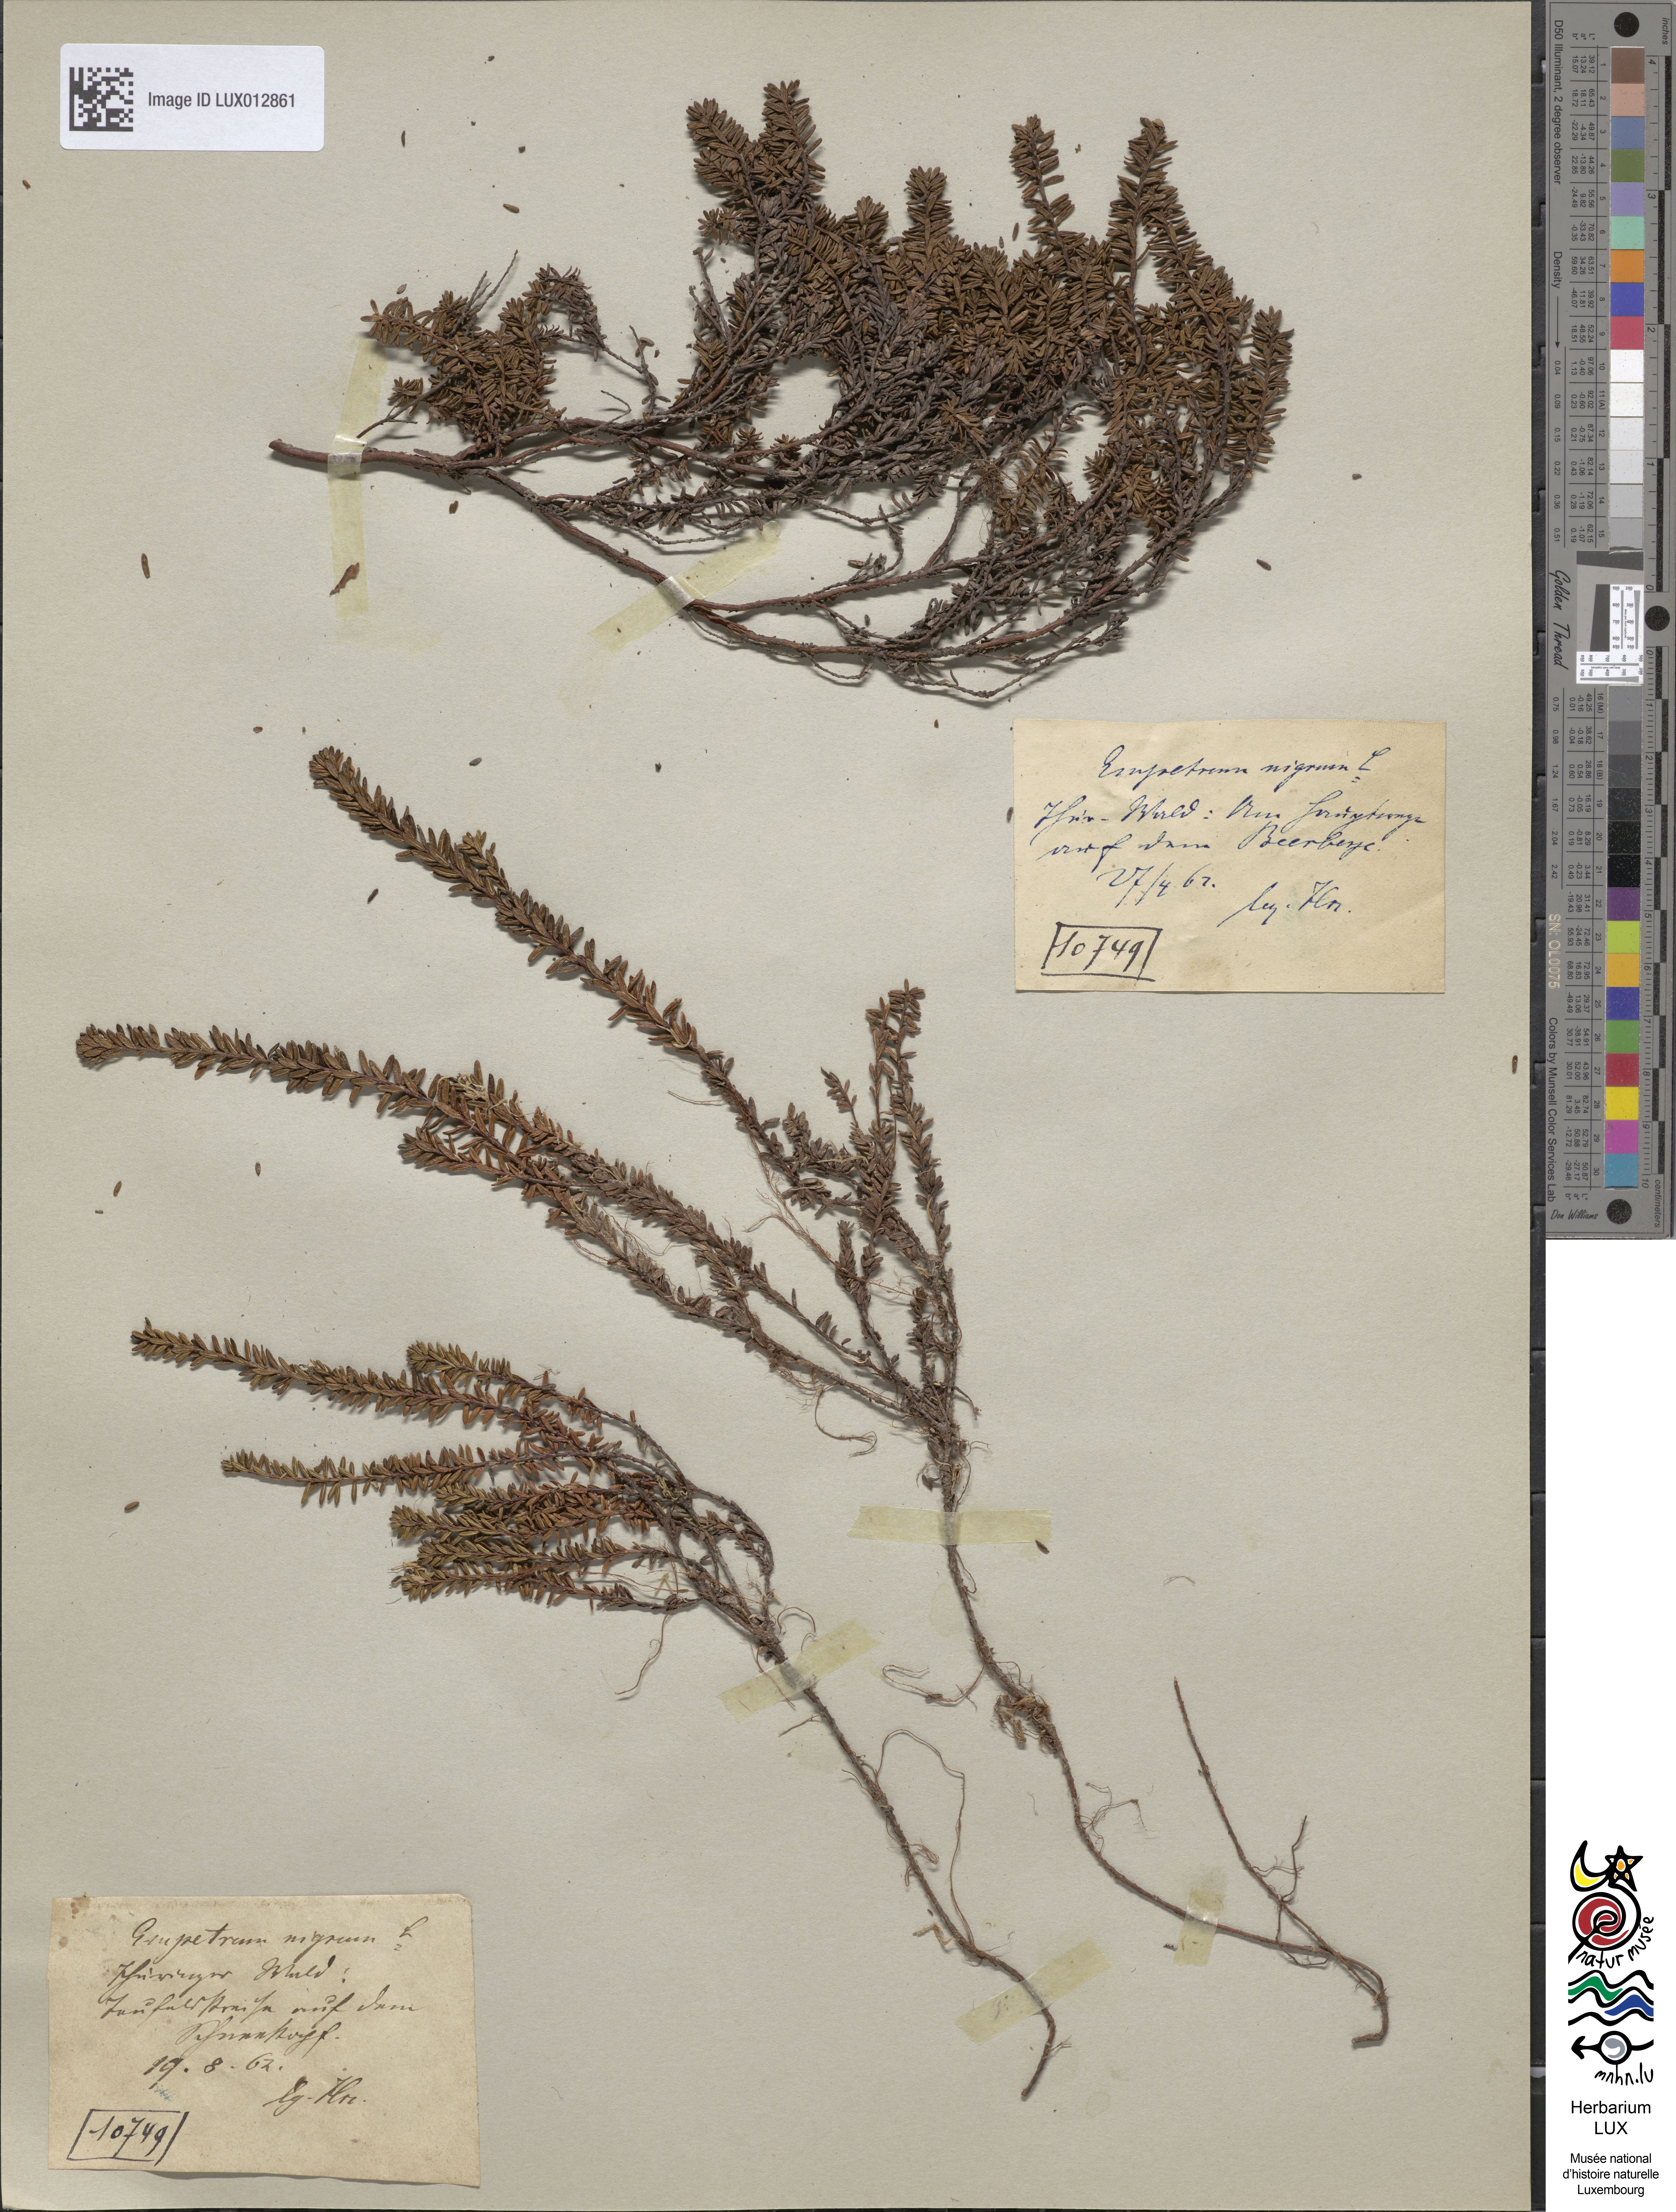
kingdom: Plantae
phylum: Tracheophyta
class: Magnoliopsida
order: Ericales
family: Ericaceae
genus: Empetrum
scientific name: Empetrum nigrum
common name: Black crowberry
